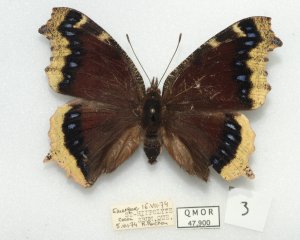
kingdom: Animalia
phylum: Arthropoda
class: Insecta
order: Lepidoptera
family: Nymphalidae
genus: Nymphalis
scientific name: Nymphalis antiopa
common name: Mourning Cloak
